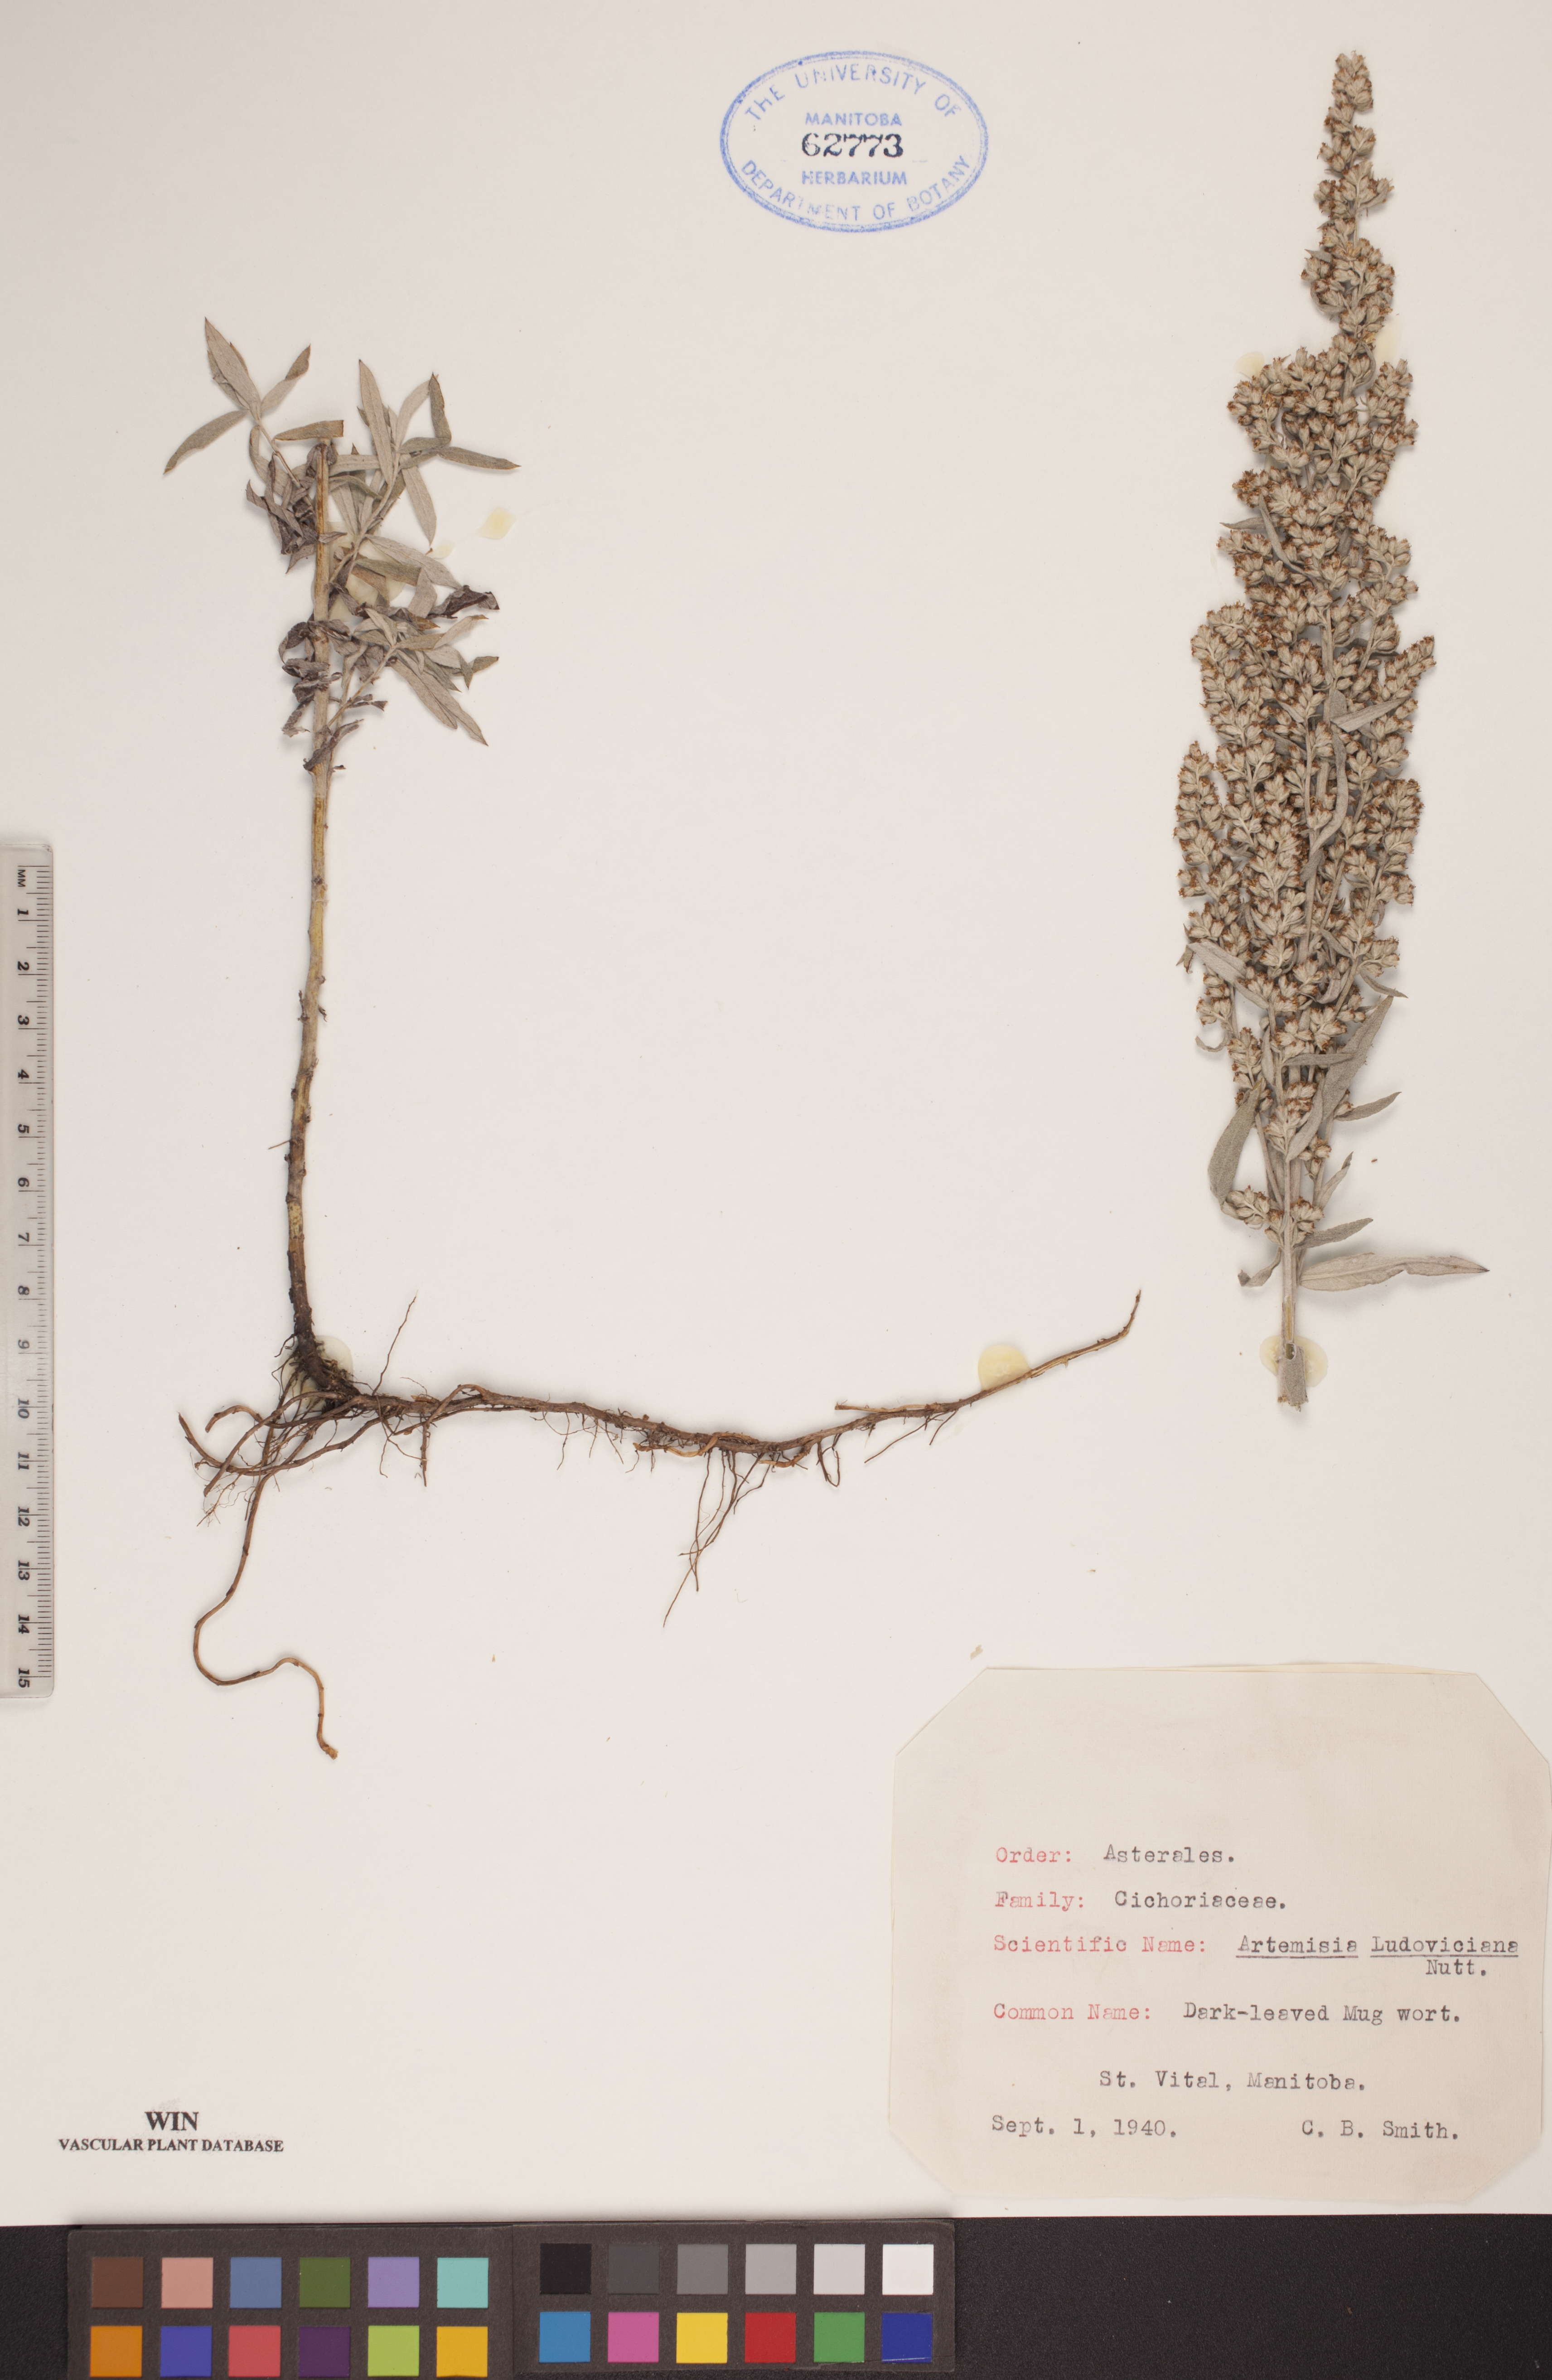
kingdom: Plantae
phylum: Tracheophyta
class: Magnoliopsida
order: Asterales
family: Asteraceae
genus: Artemisia
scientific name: Artemisia ludoviciana
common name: Western mugwort
